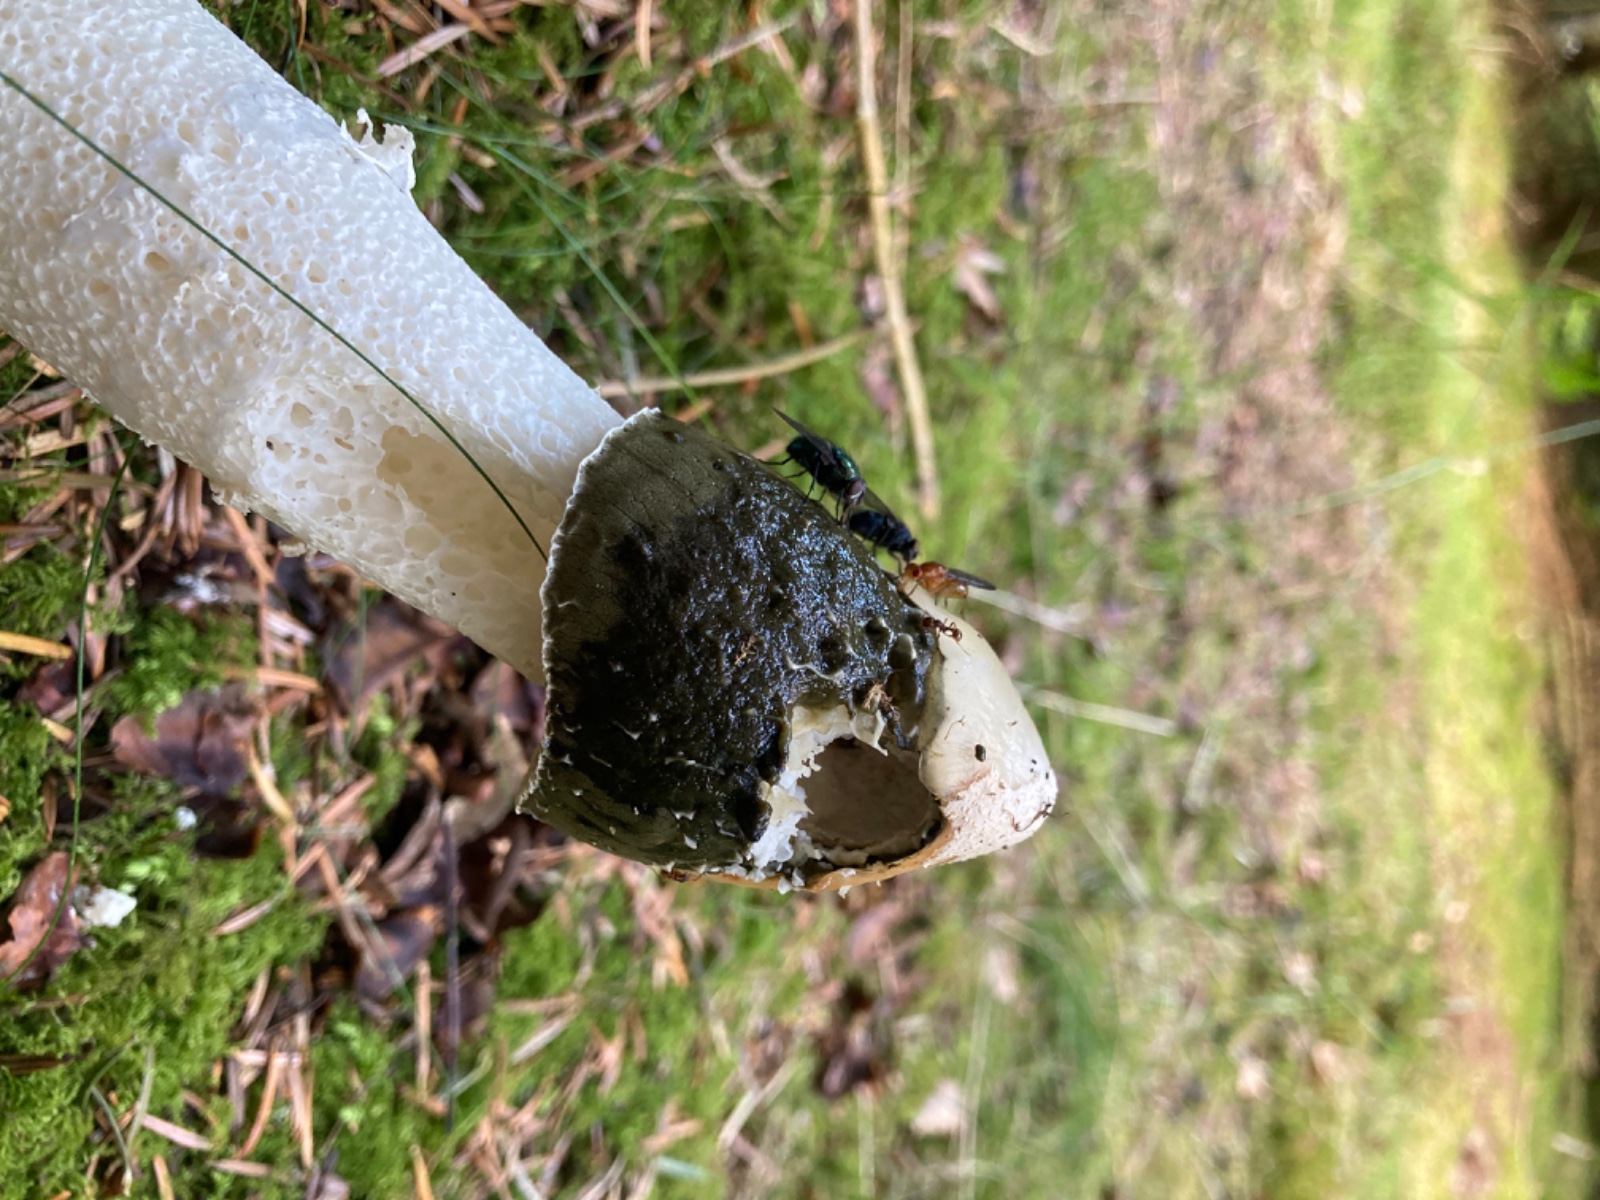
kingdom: Fungi
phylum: Basidiomycota
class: Agaricomycetes
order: Phallales
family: Phallaceae
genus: Phallus
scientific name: Phallus impudicus
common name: almindelig stinksvamp
